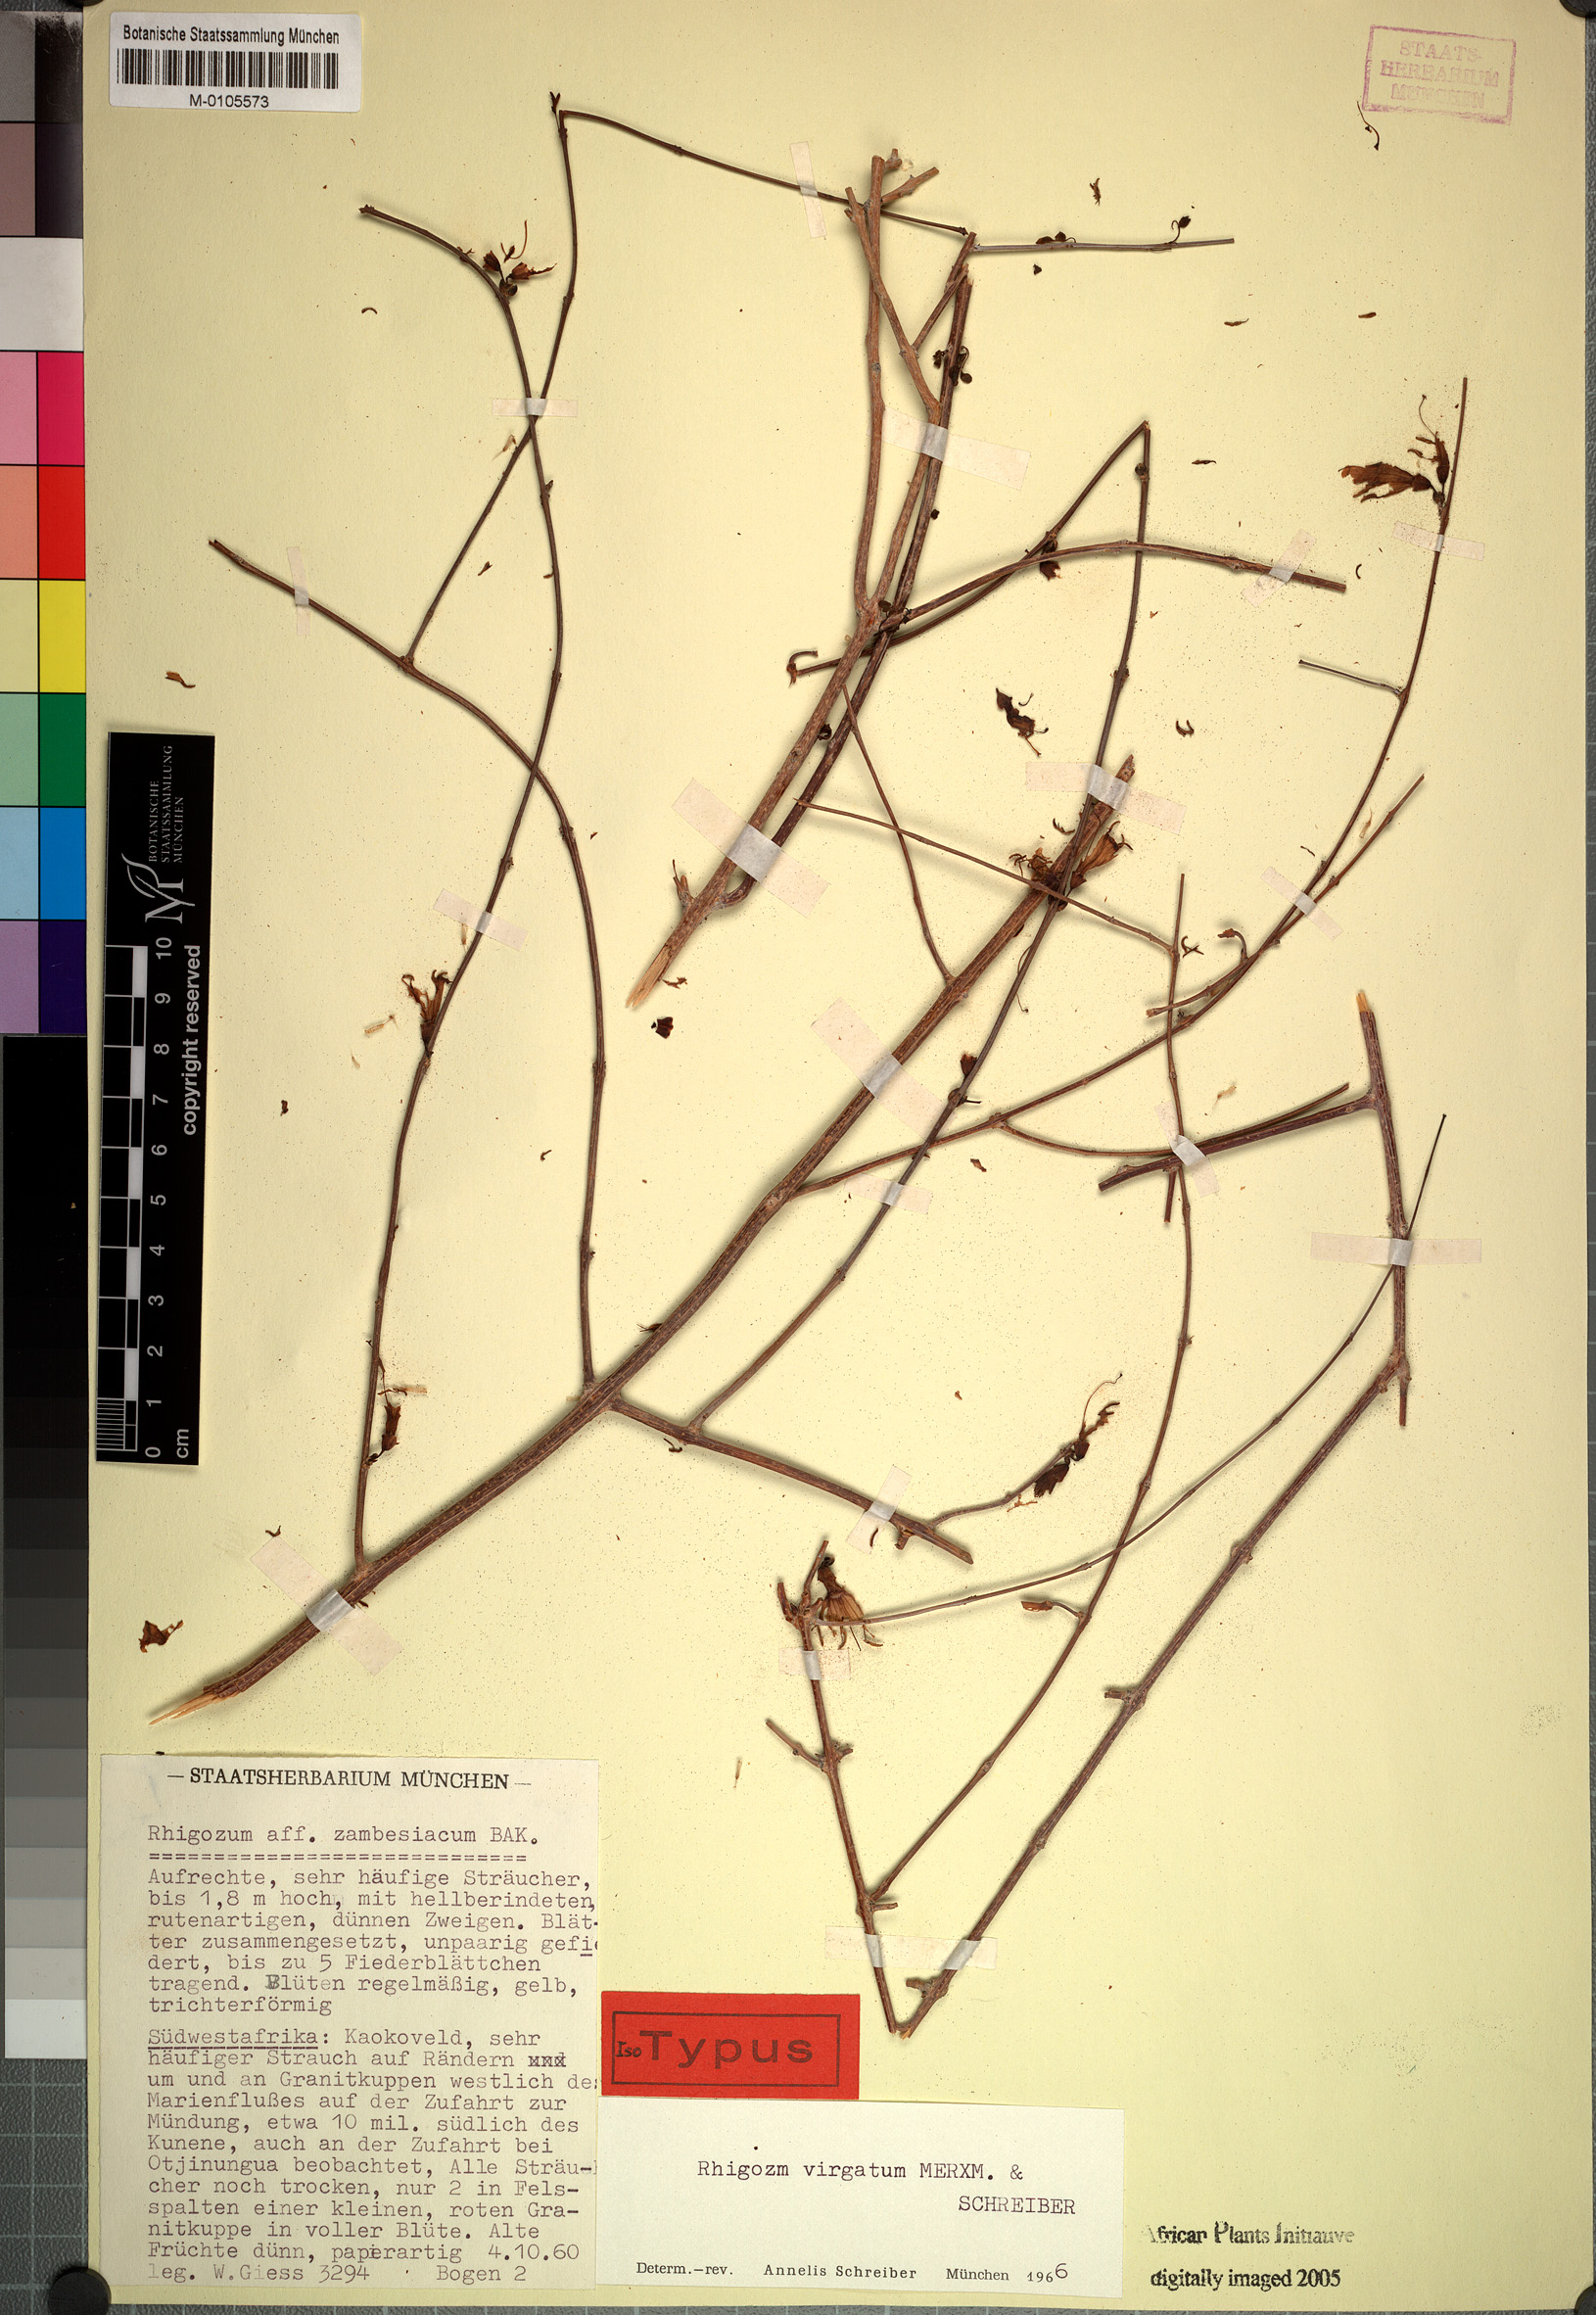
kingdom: Plantae
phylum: Tracheophyta
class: Magnoliopsida
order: Lamiales
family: Bignoniaceae
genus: Rhigozum
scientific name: Rhigozum virgatum
